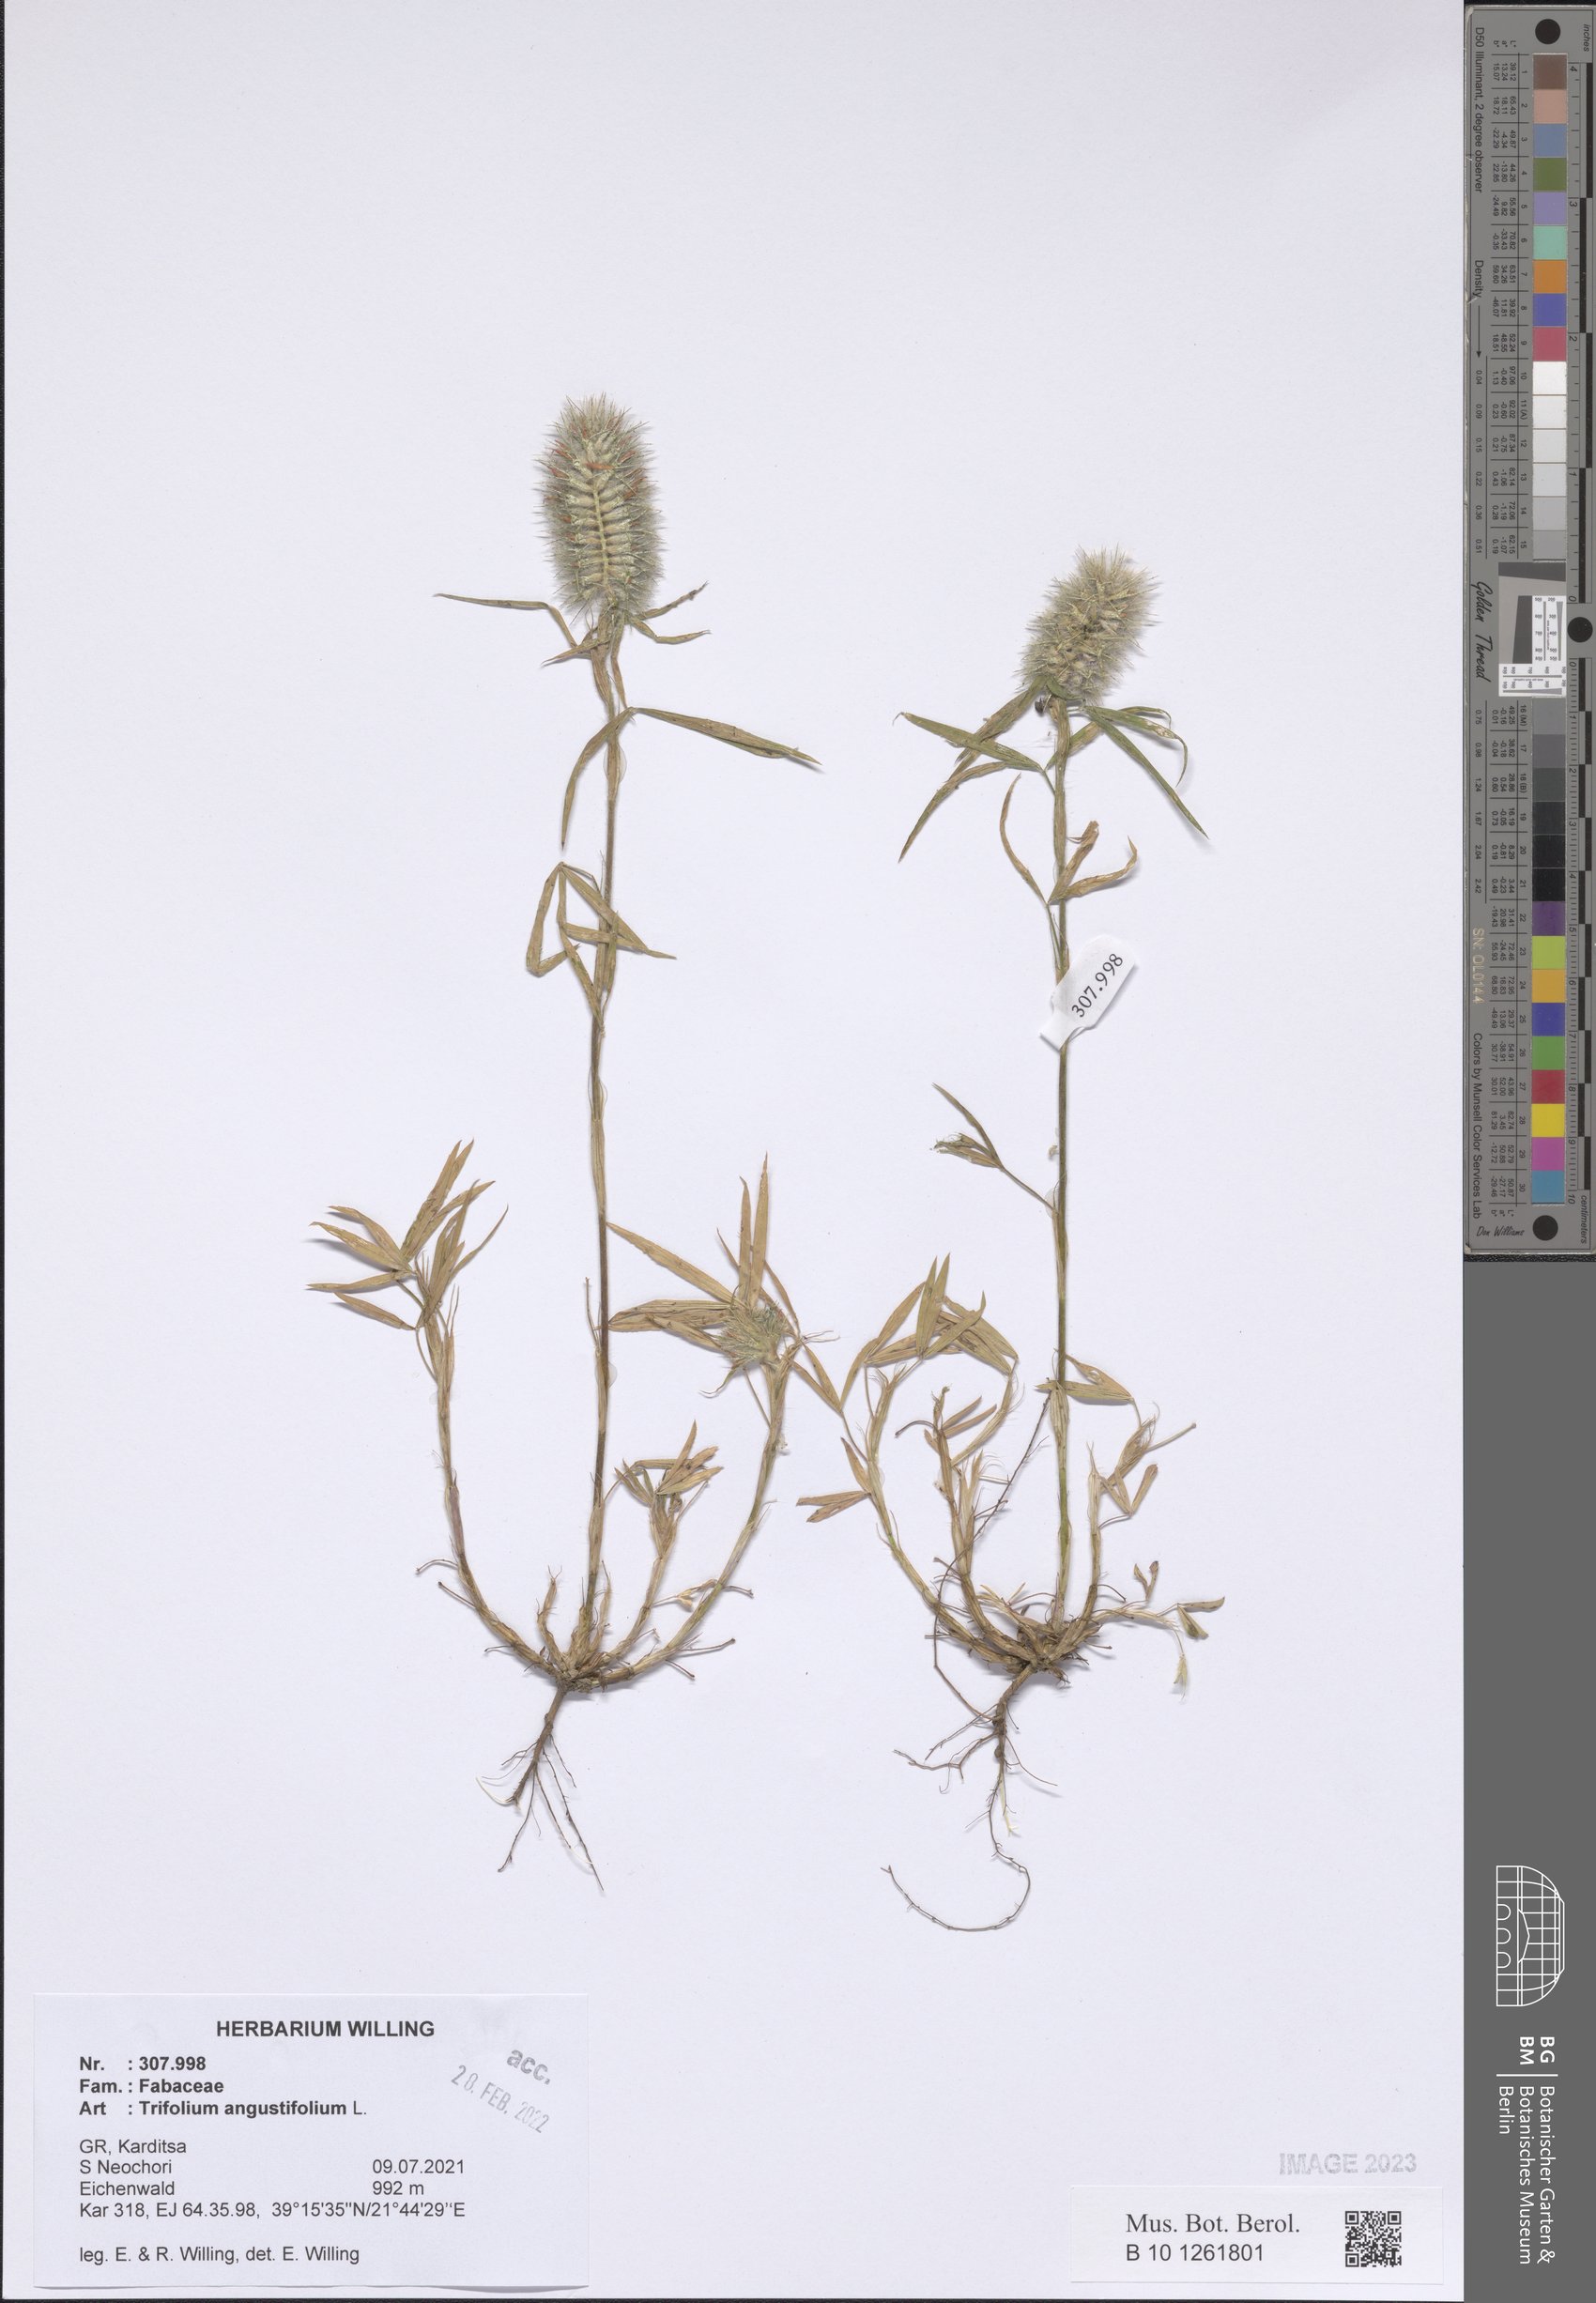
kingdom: Plantae
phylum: Tracheophyta
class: Magnoliopsida
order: Fabales
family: Fabaceae
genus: Trifolium
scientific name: Trifolium angustifolium
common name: Narrow clover
